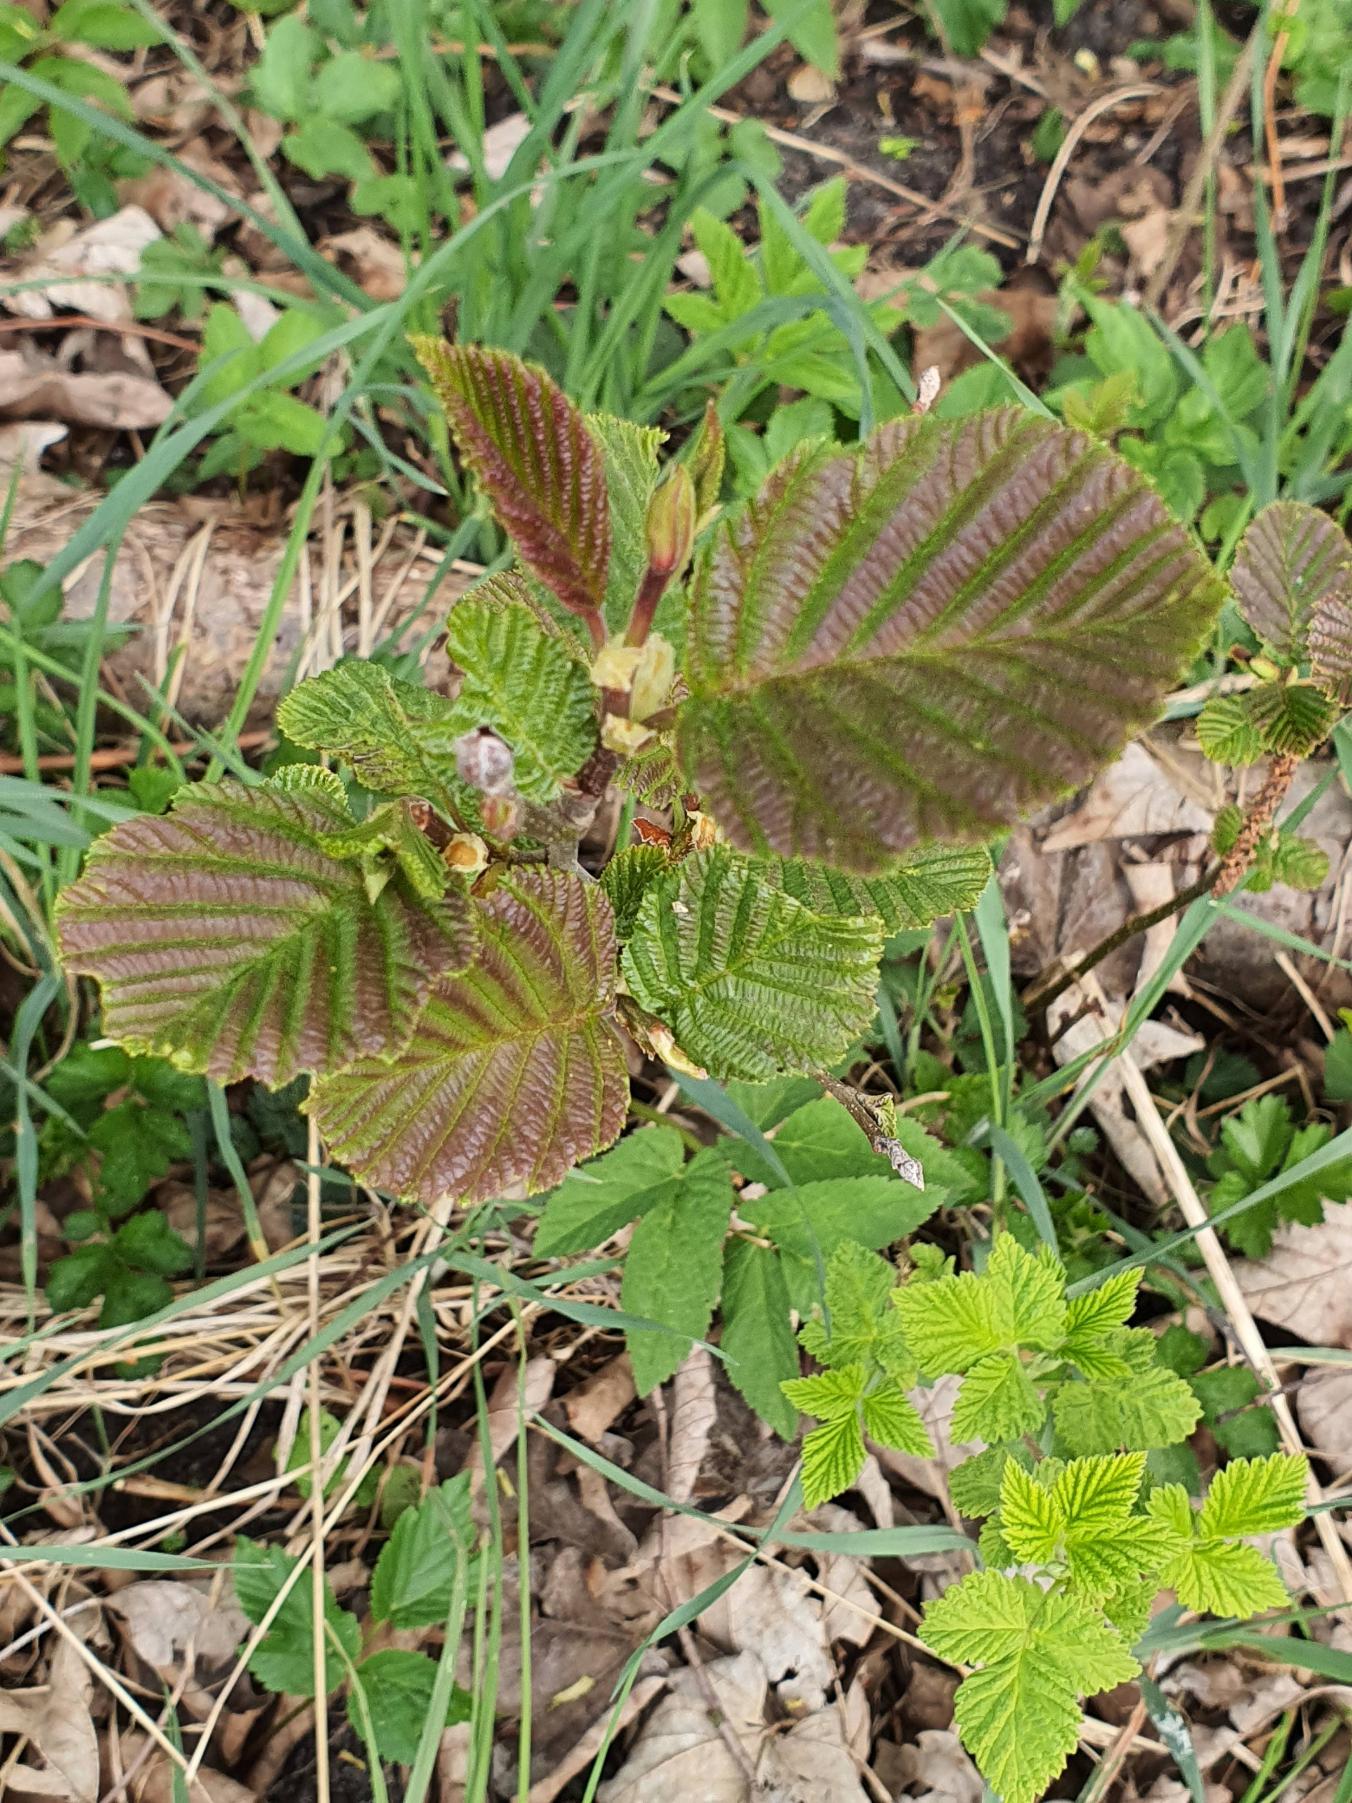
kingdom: Plantae
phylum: Tracheophyta
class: Magnoliopsida
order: Fagales
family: Betulaceae
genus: Alnus
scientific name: Alnus glutinosa
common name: Rød-el
